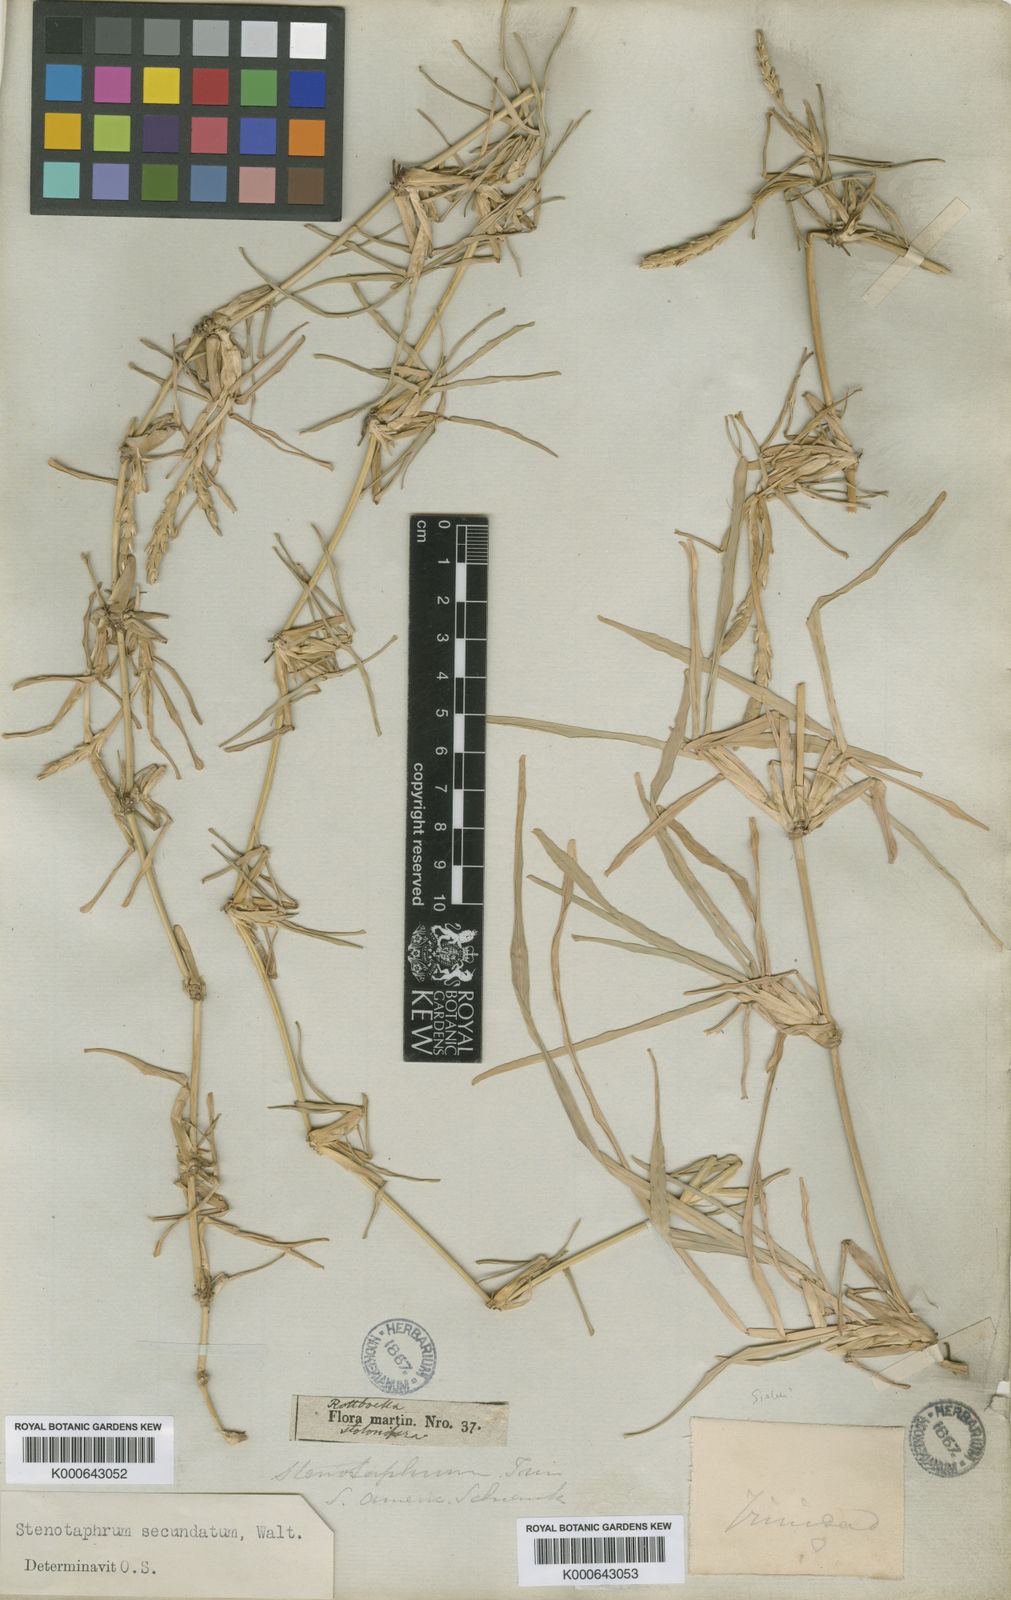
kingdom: Plantae
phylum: Tracheophyta
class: Liliopsida
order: Poales
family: Poaceae
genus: Stenotaphrum
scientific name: Stenotaphrum secundatum
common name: St. augustine grass
